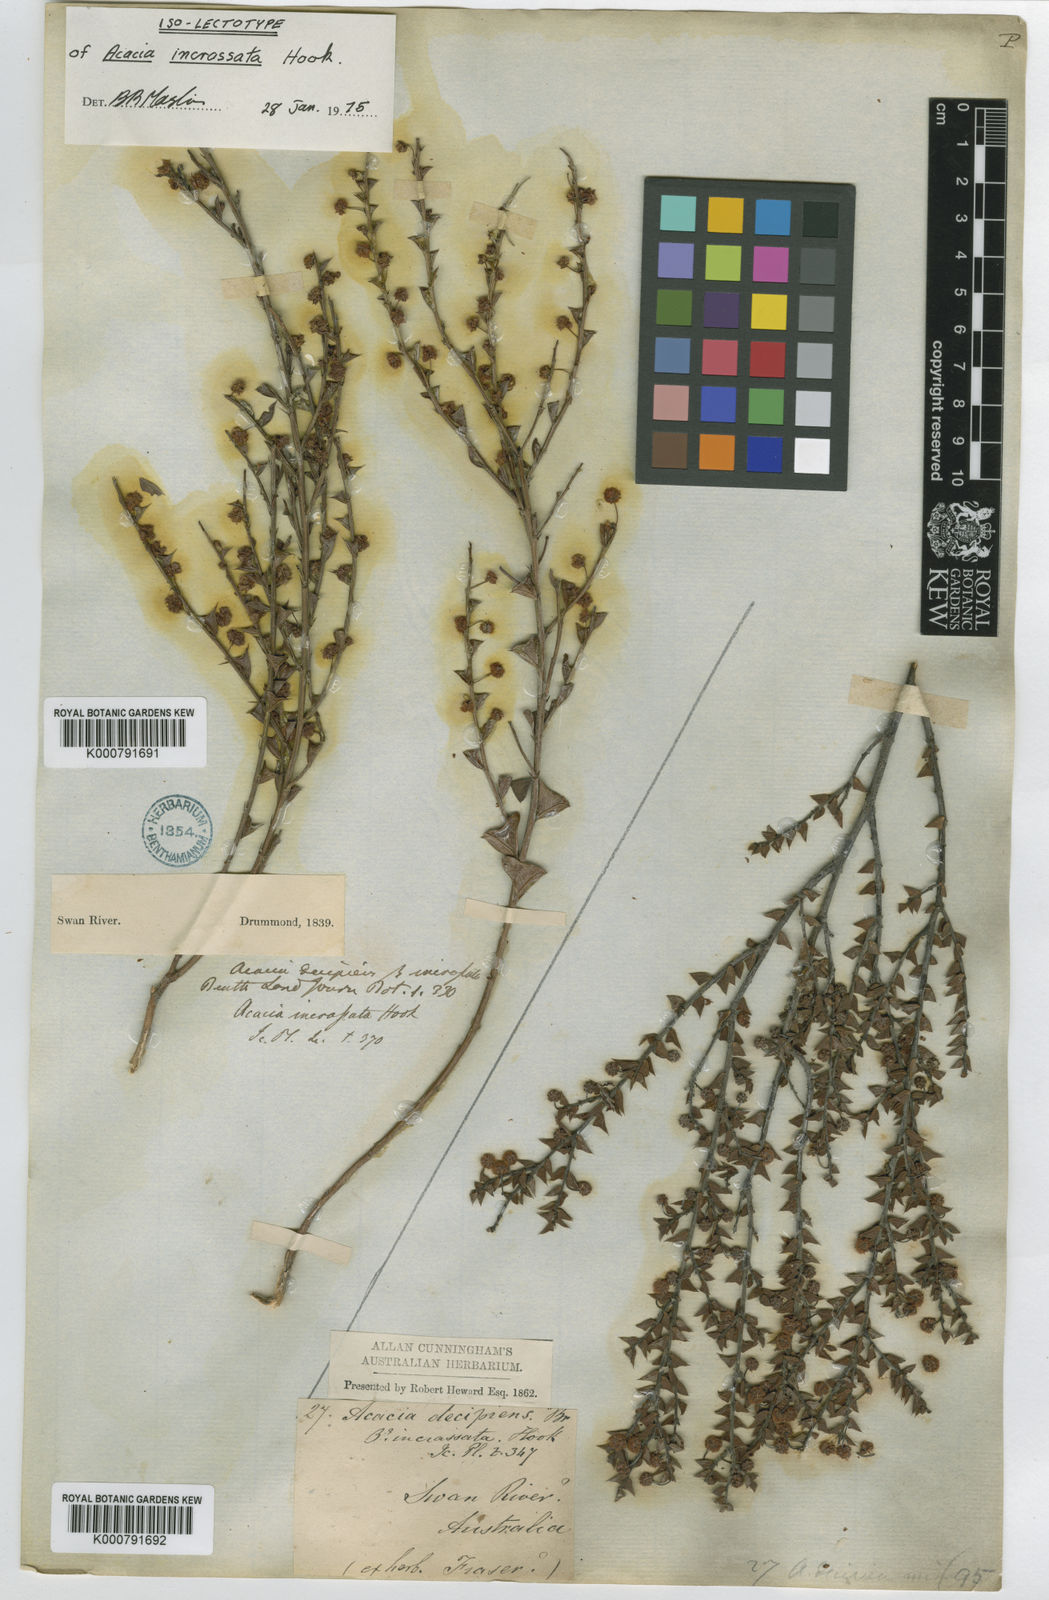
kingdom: Plantae
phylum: Tracheophyta
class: Magnoliopsida
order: Fabales
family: Fabaceae
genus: Acacia
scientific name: Acacia incrassata
